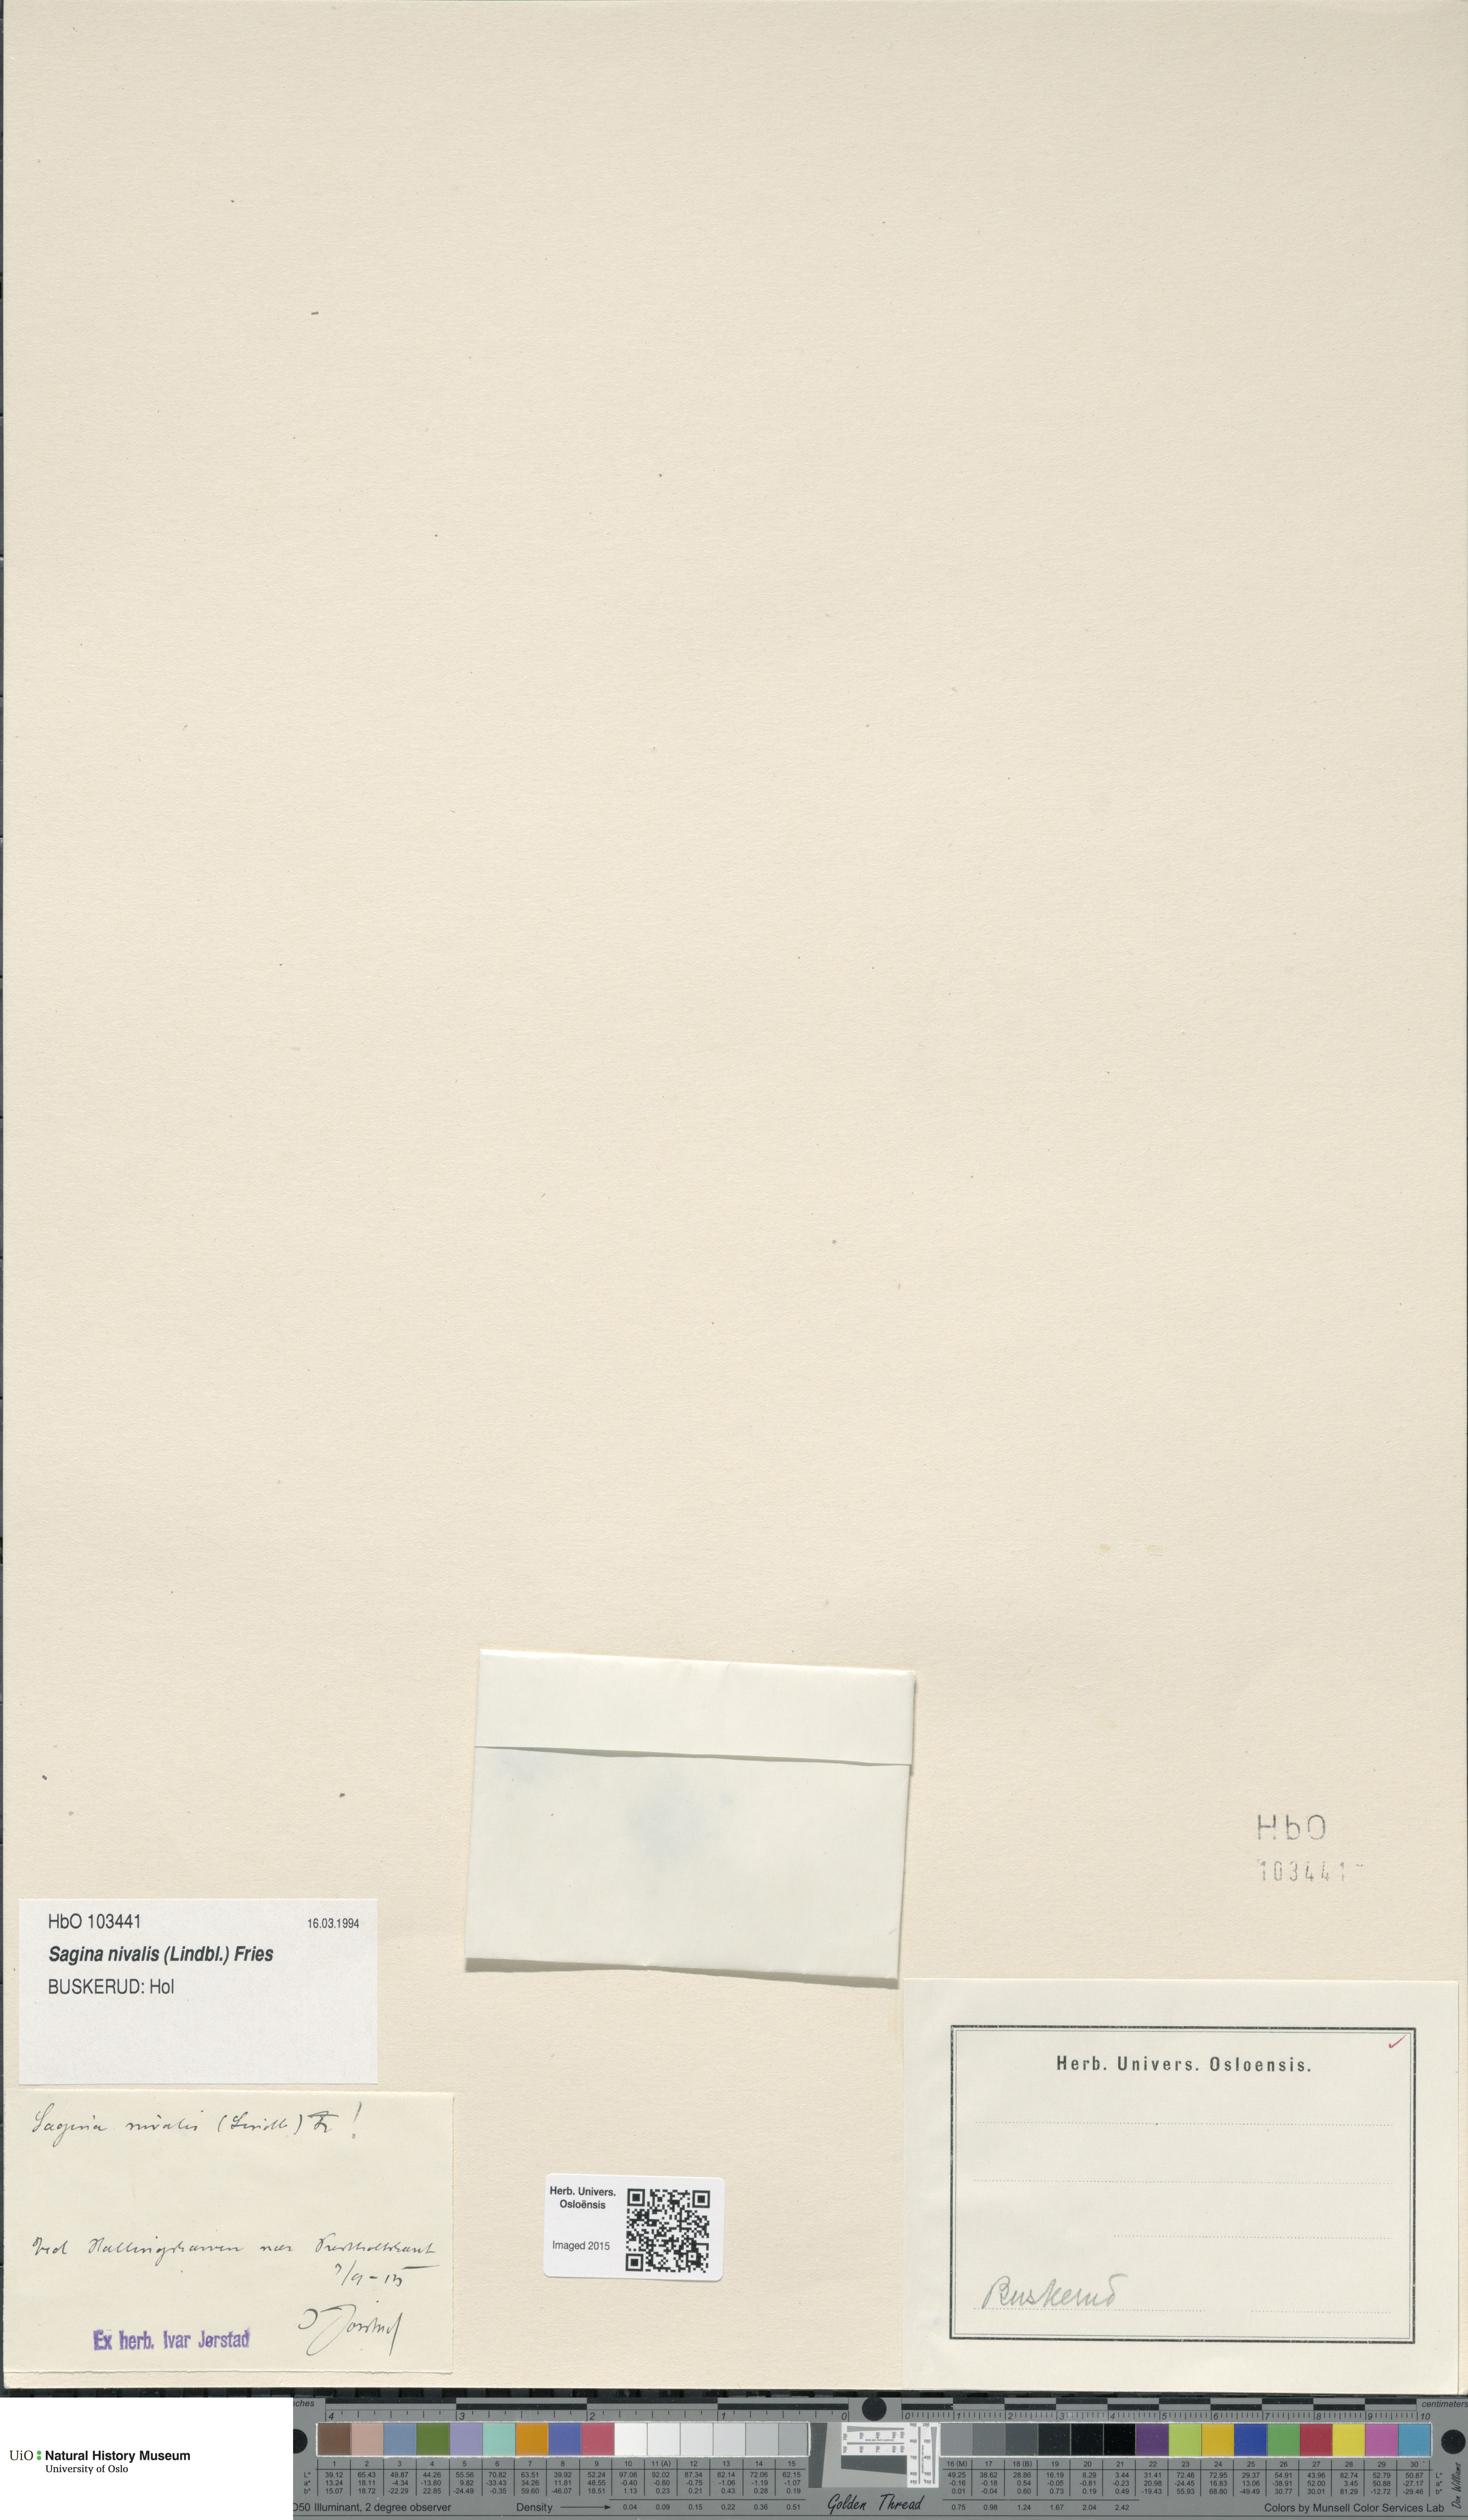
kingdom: Plantae
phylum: Tracheophyta
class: Magnoliopsida
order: Caryophyllales
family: Caryophyllaceae
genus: Sagina
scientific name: Sagina nivalis
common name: Snow pearlwort
